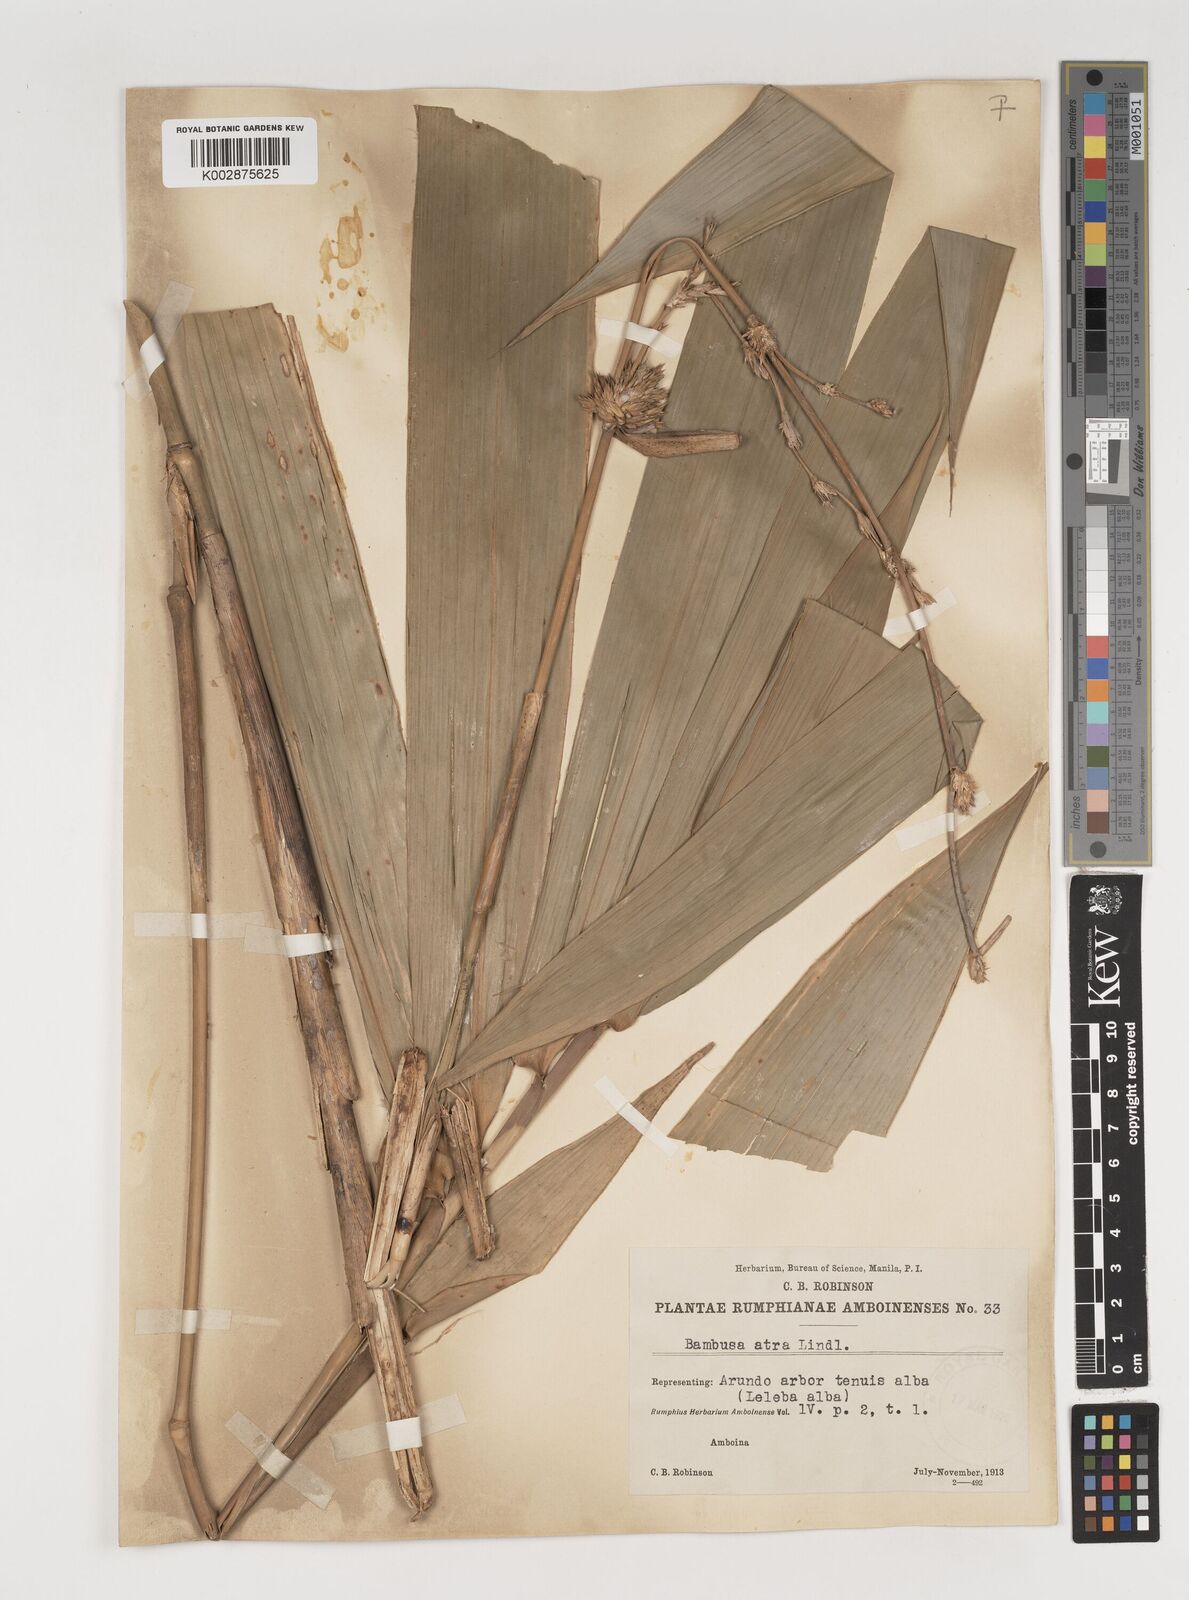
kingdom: Plantae
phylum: Tracheophyta
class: Liliopsida
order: Poales
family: Poaceae
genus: Neololeba
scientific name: Neololeba atra
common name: Cape bamboo
